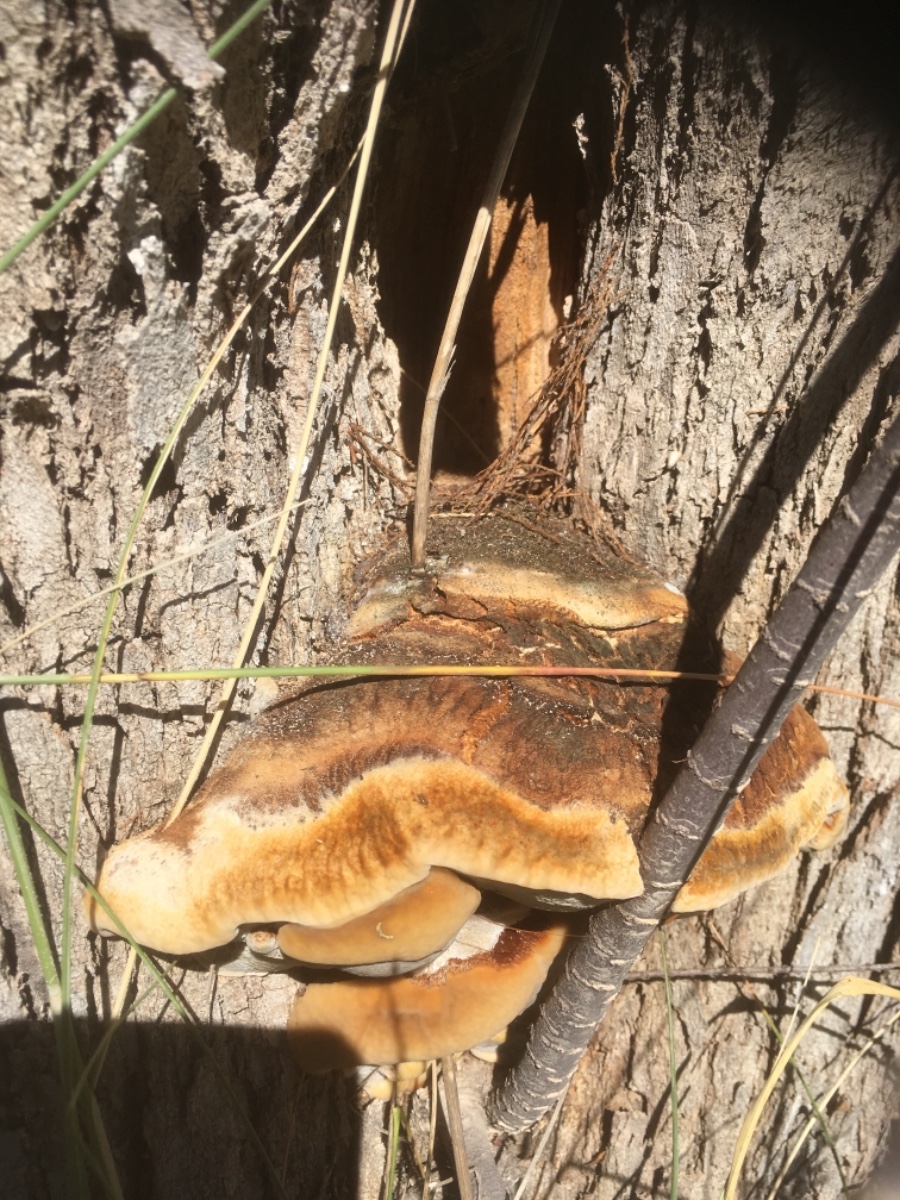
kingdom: Fungi
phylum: Basidiomycota
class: Agaricomycetes
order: Hymenochaetales
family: Hymenochaetaceae
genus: Inocutis
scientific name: Inocutis tamaricis
